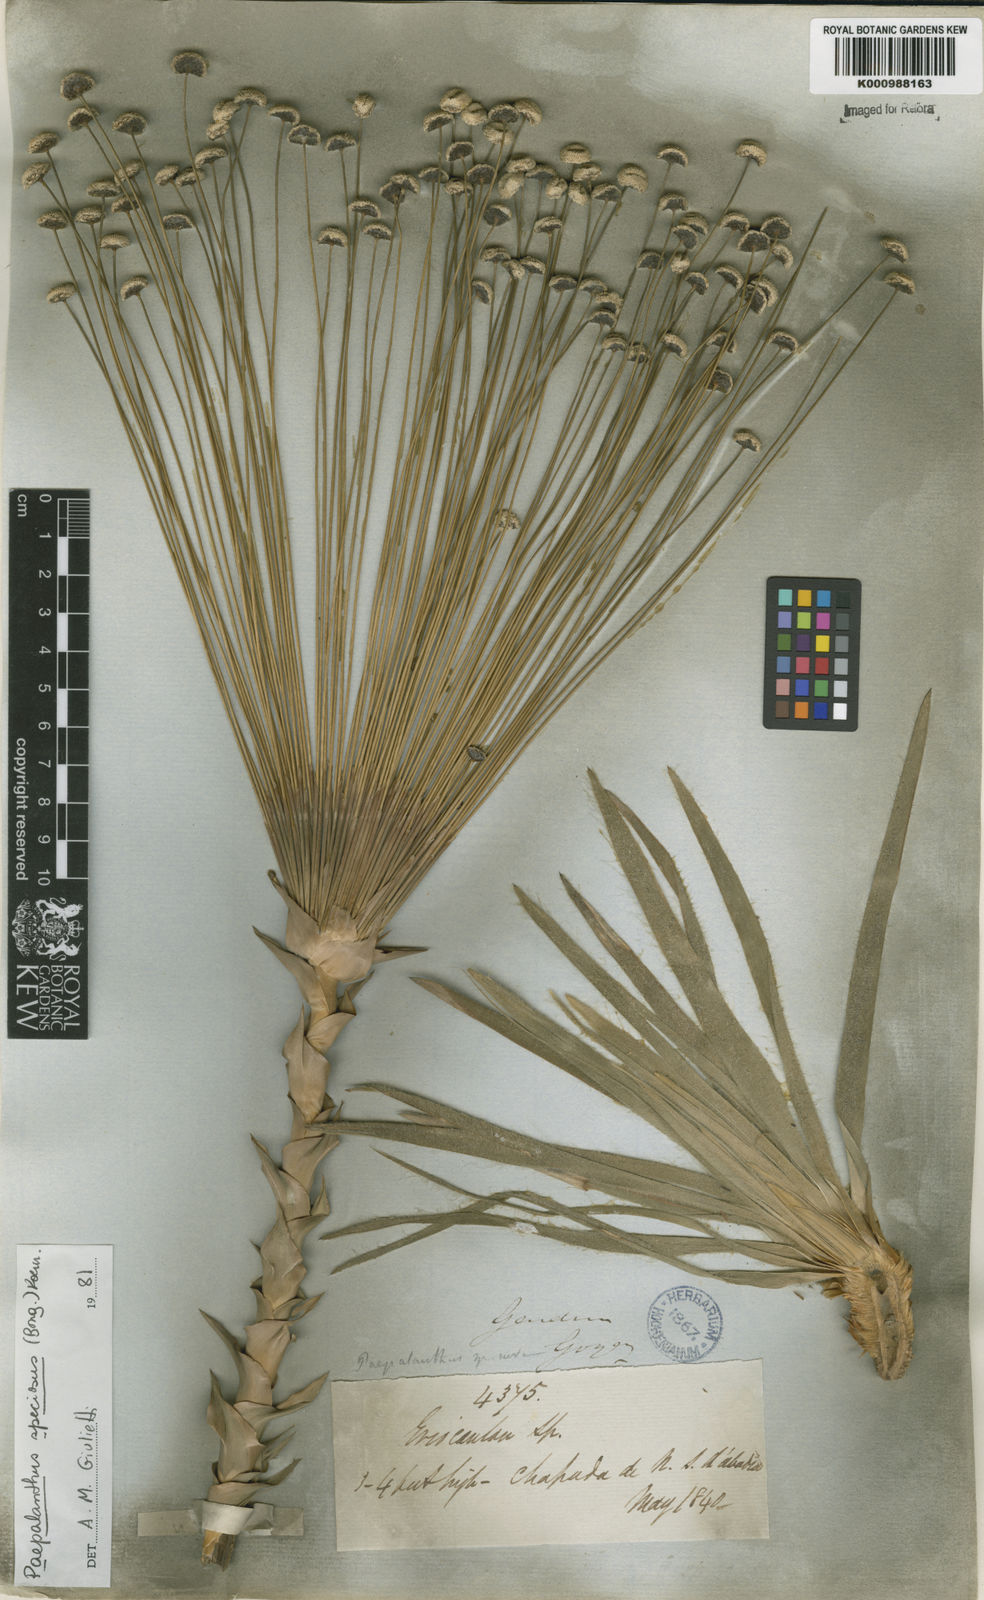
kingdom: Plantae
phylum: Tracheophyta
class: Liliopsida
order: Poales
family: Eriocaulaceae
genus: Paepalanthus
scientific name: Paepalanthus
